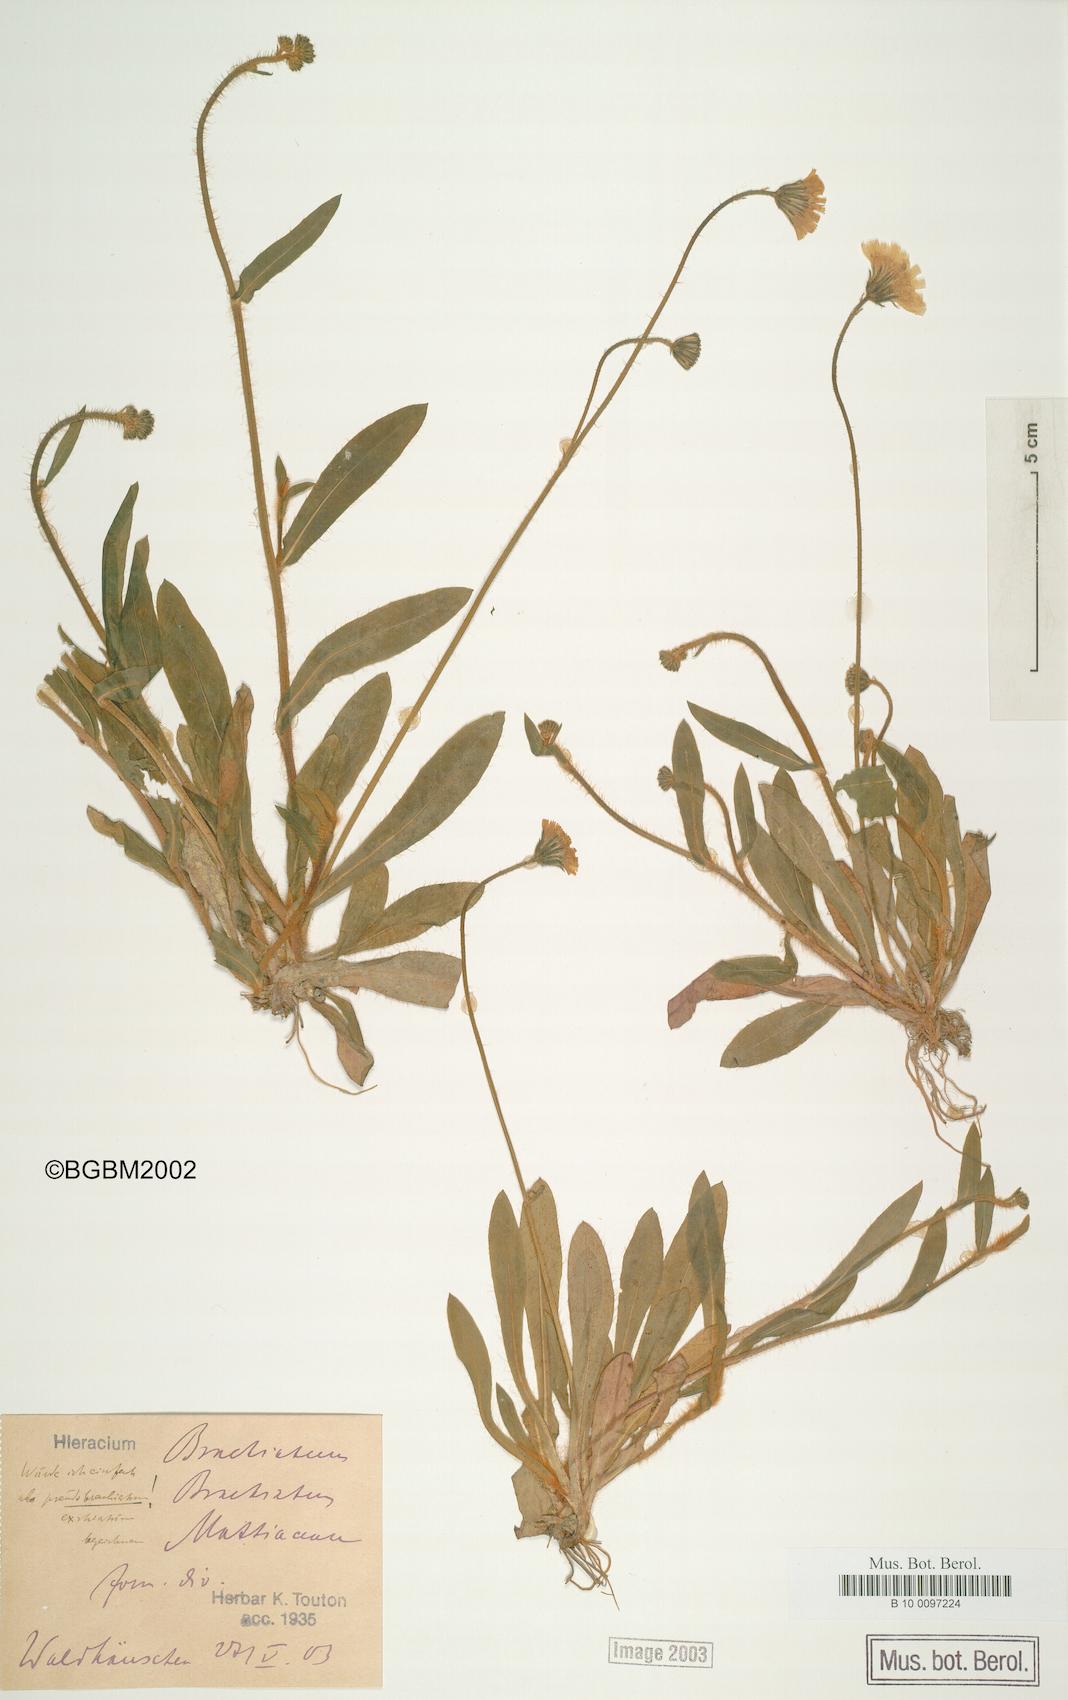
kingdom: Plantae
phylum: Tracheophyta
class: Magnoliopsida
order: Asterales
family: Asteraceae
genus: Pilosella
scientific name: Pilosella acutifolia
